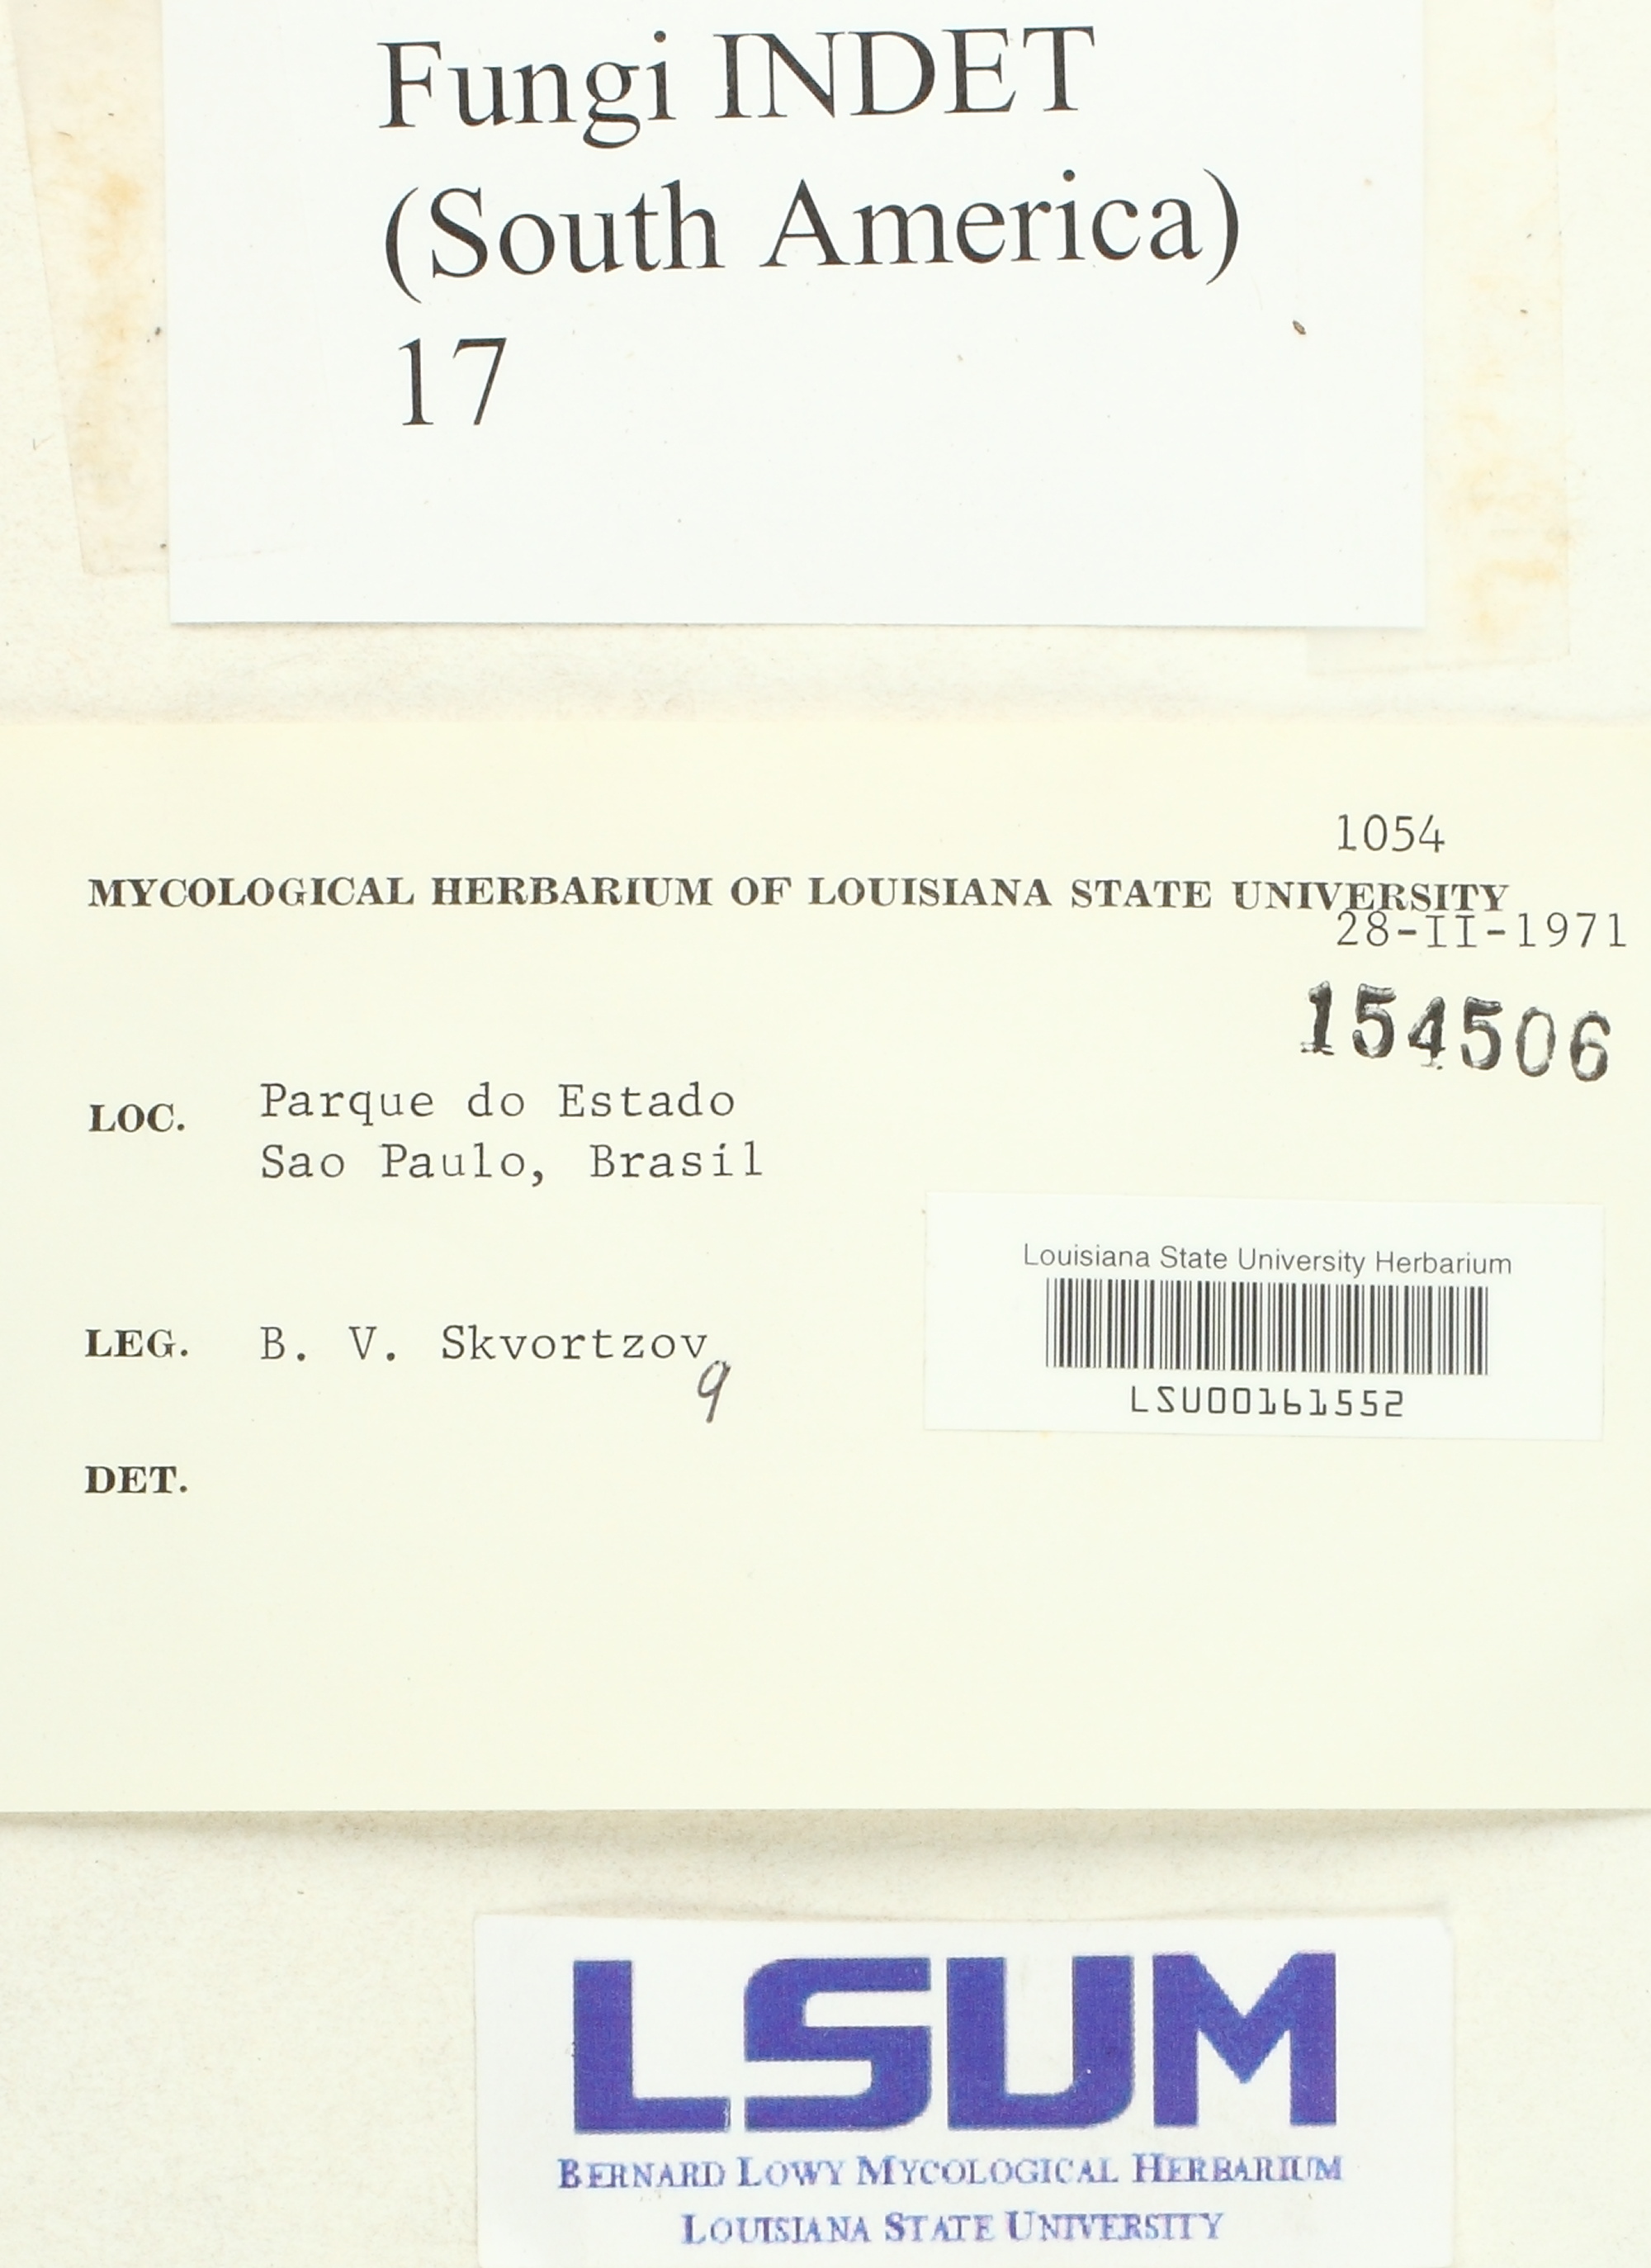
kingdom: Fungi
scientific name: Fungi
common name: Fungi
